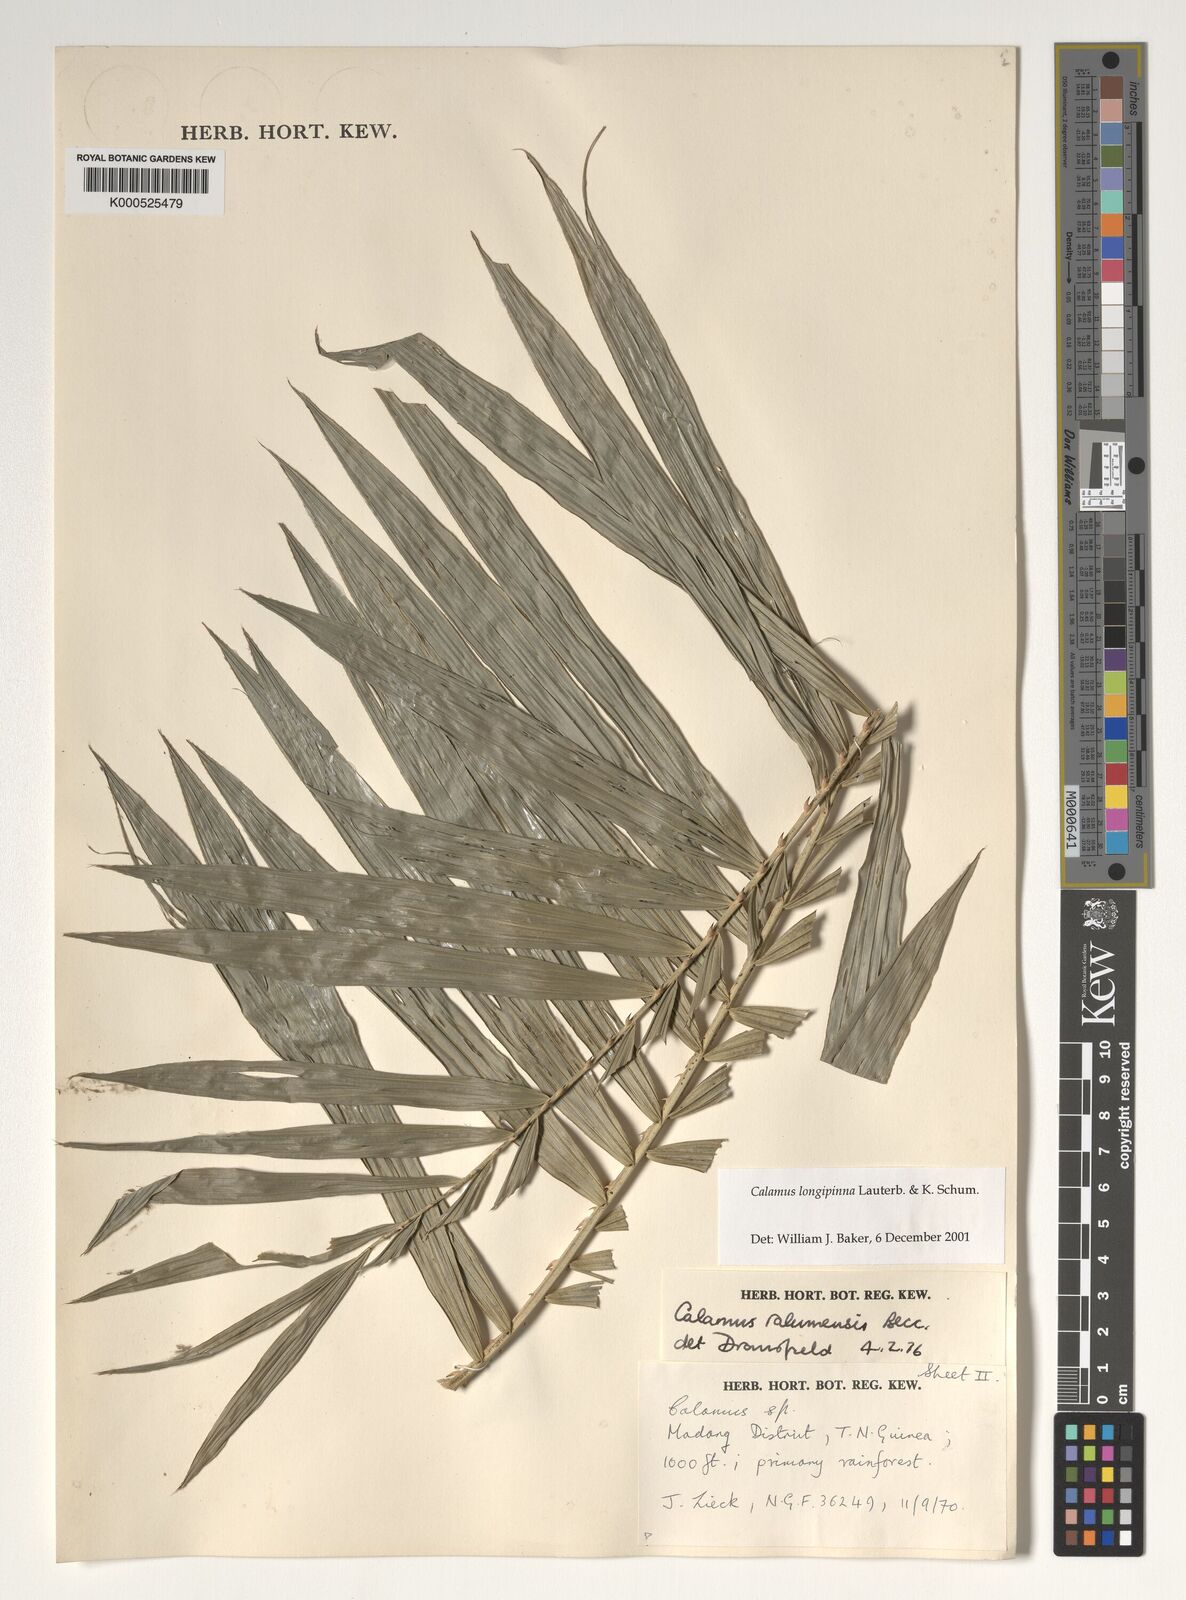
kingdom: Plantae
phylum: Tracheophyta
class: Liliopsida
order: Arecales
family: Arecaceae
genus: Calamus
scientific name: Calamus longipinna
